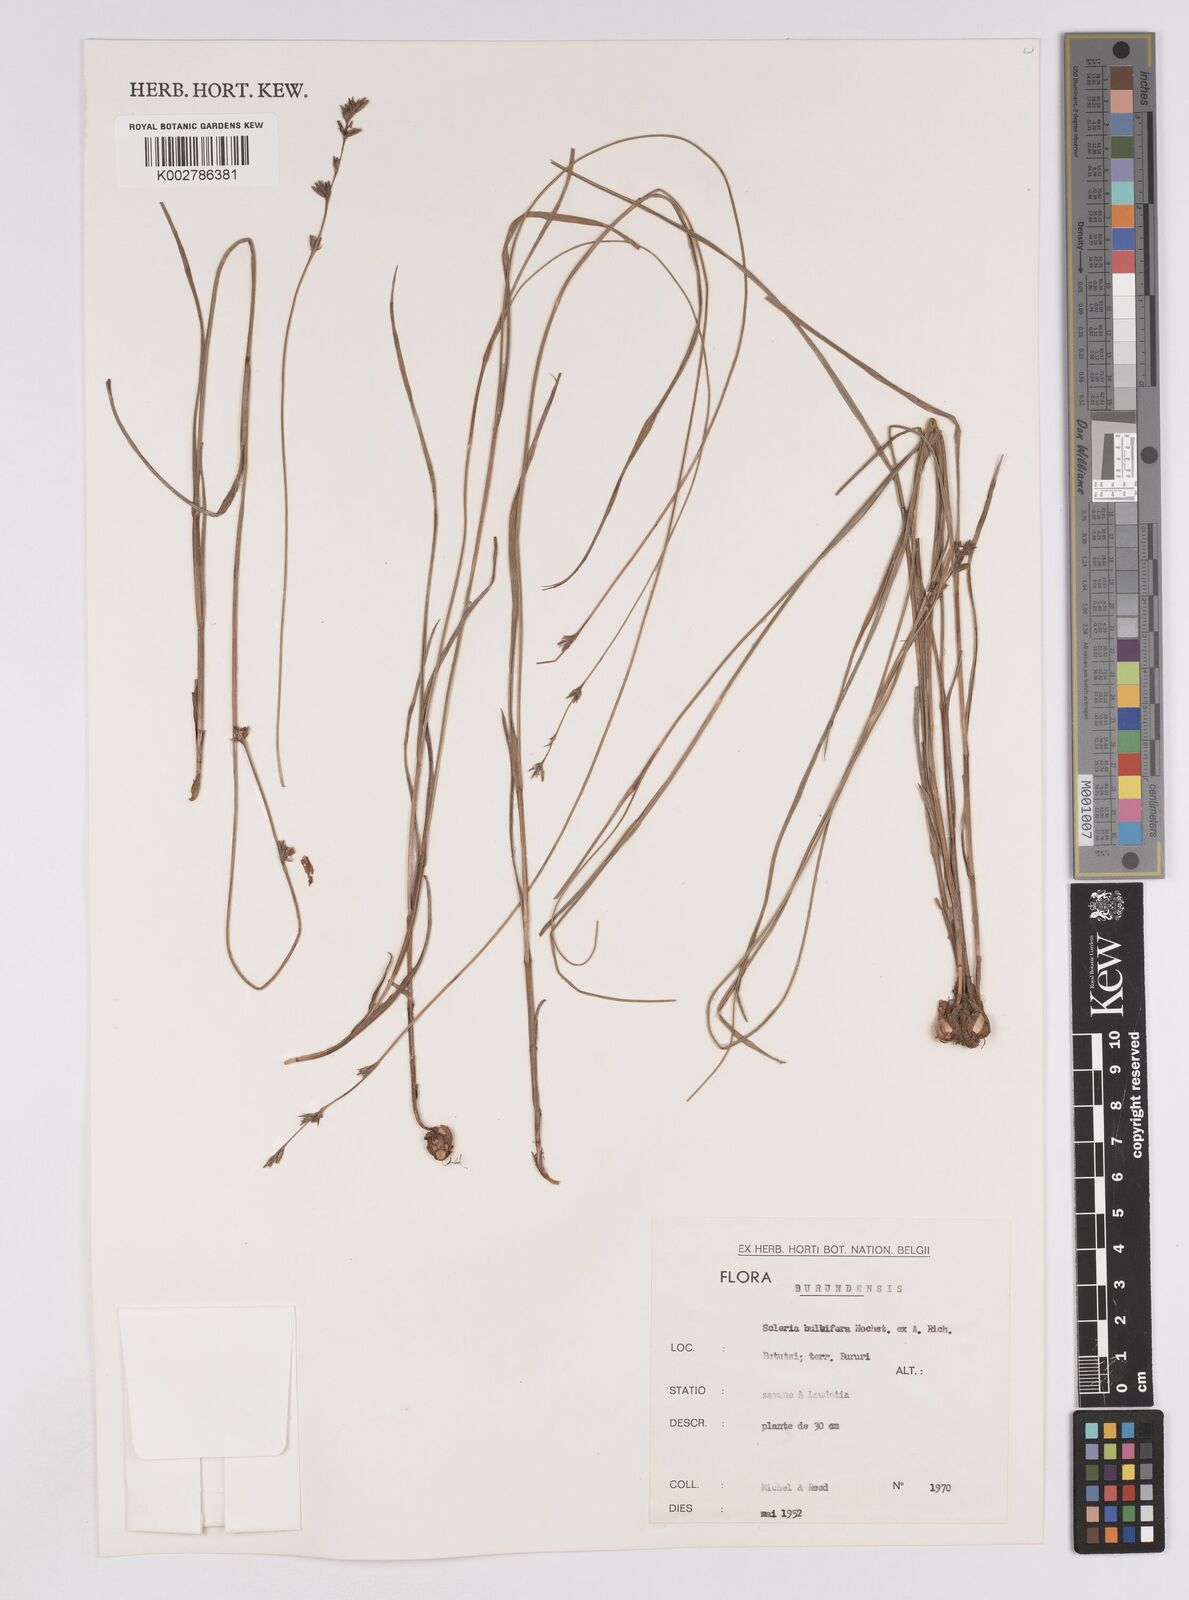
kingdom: Plantae
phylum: Tracheophyta
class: Liliopsida
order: Poales
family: Cyperaceae
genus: Scleria
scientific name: Scleria bulbifera
